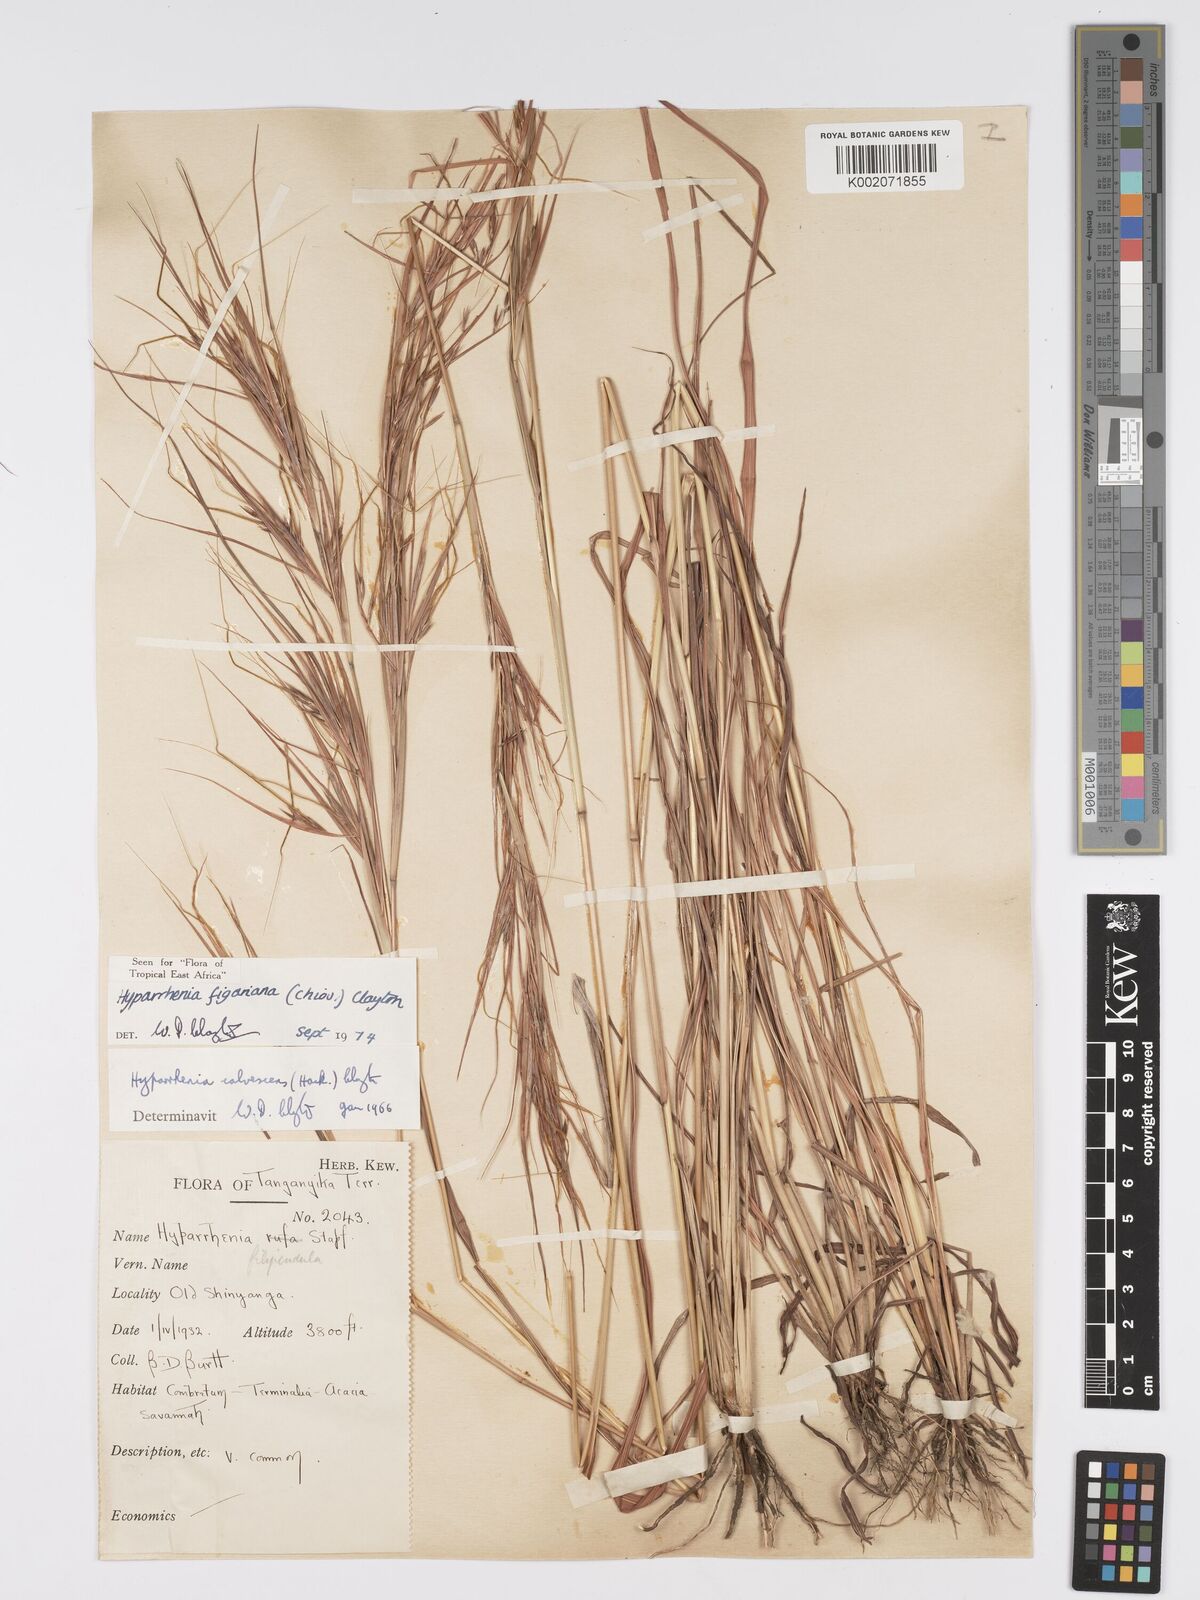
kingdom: Plantae
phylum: Tracheophyta
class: Liliopsida
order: Poales
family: Poaceae
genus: Hyparrhenia
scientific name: Hyparrhenia figariana
